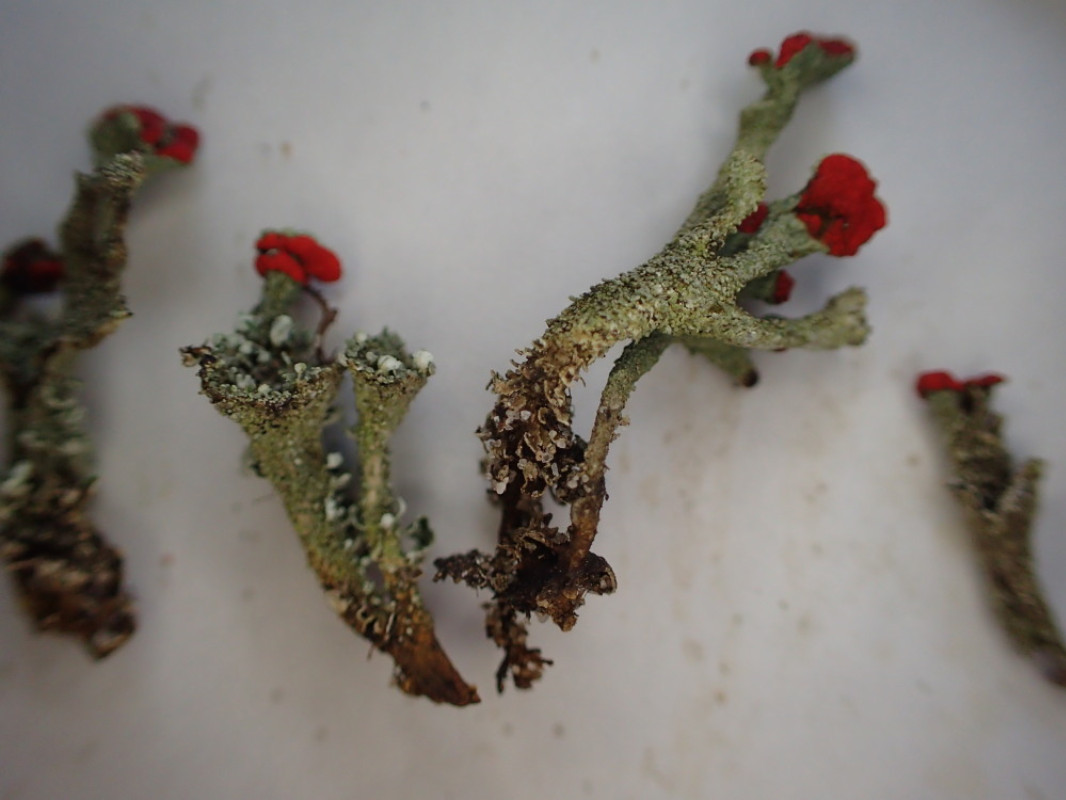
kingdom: Fungi
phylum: Ascomycota
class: Lecanoromycetes
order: Lecanorales
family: Cladoniaceae
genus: Cladonia
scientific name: Cladonia diversa
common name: rød bægerlav
